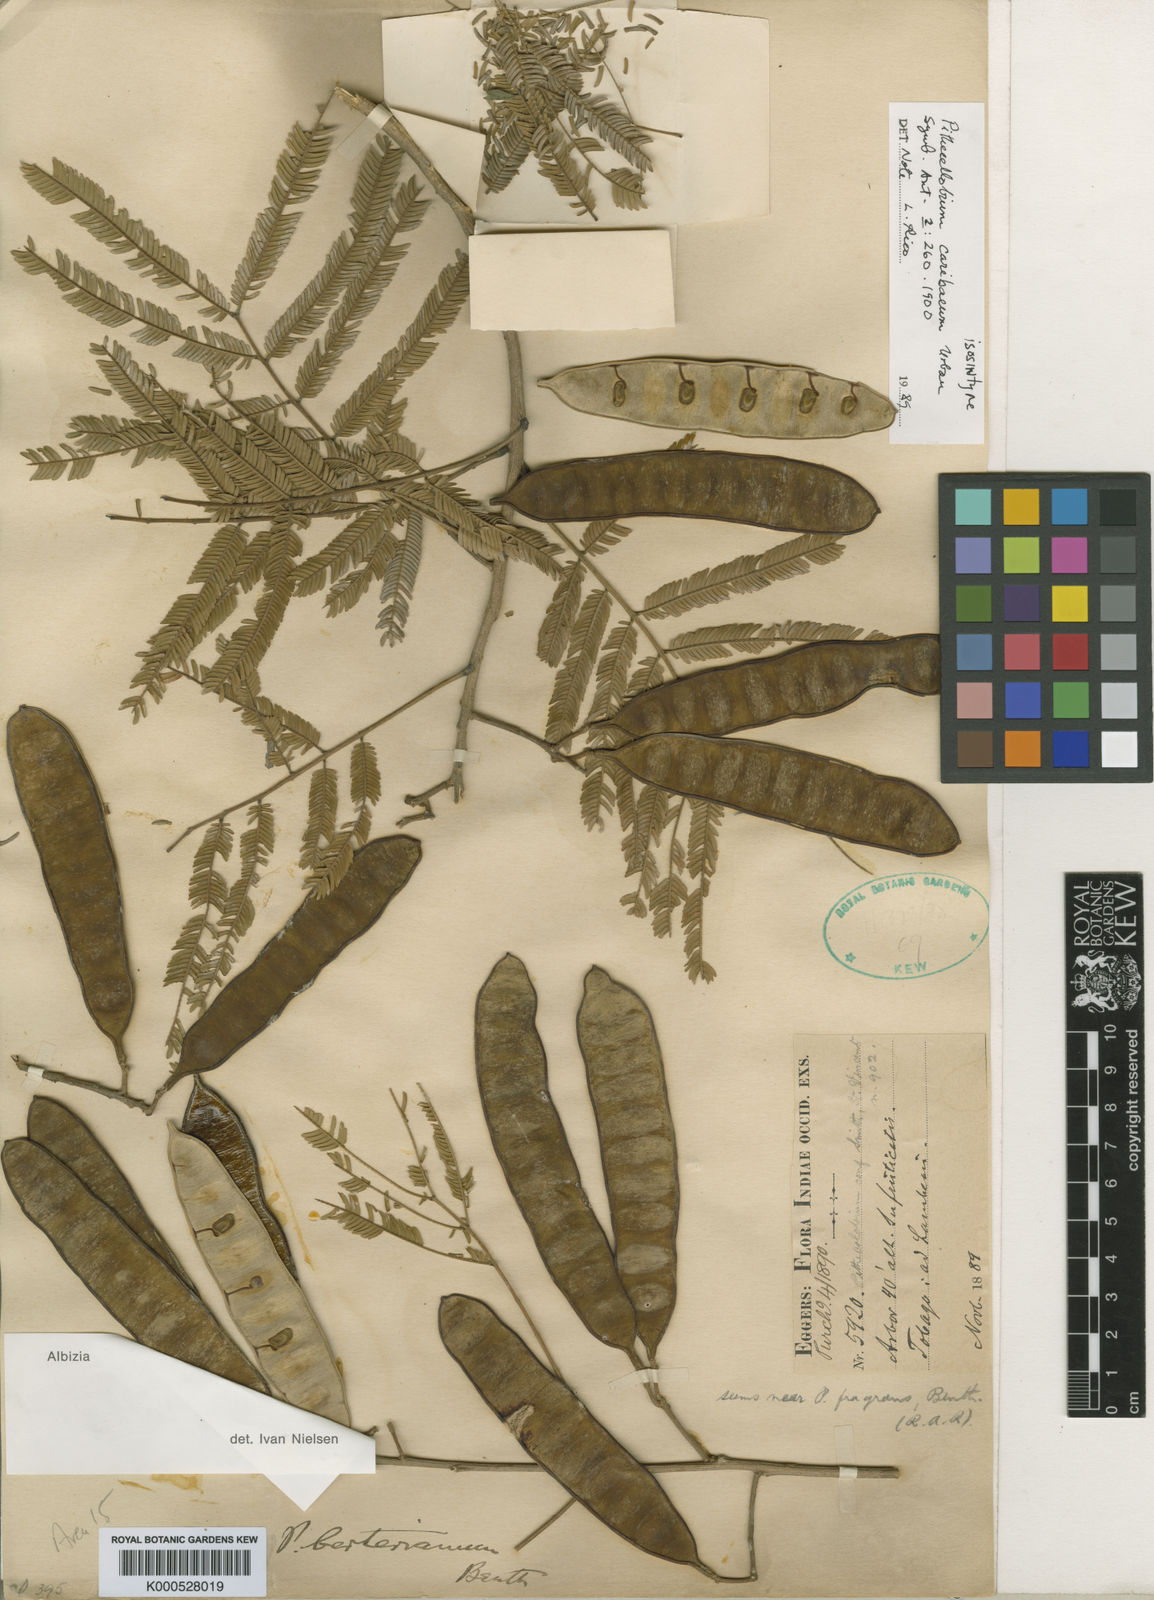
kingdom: Plantae
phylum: Tracheophyta
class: Magnoliopsida
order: Fabales
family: Fabaceae
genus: Albizia
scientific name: Albizia niopoides
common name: Silk tree
